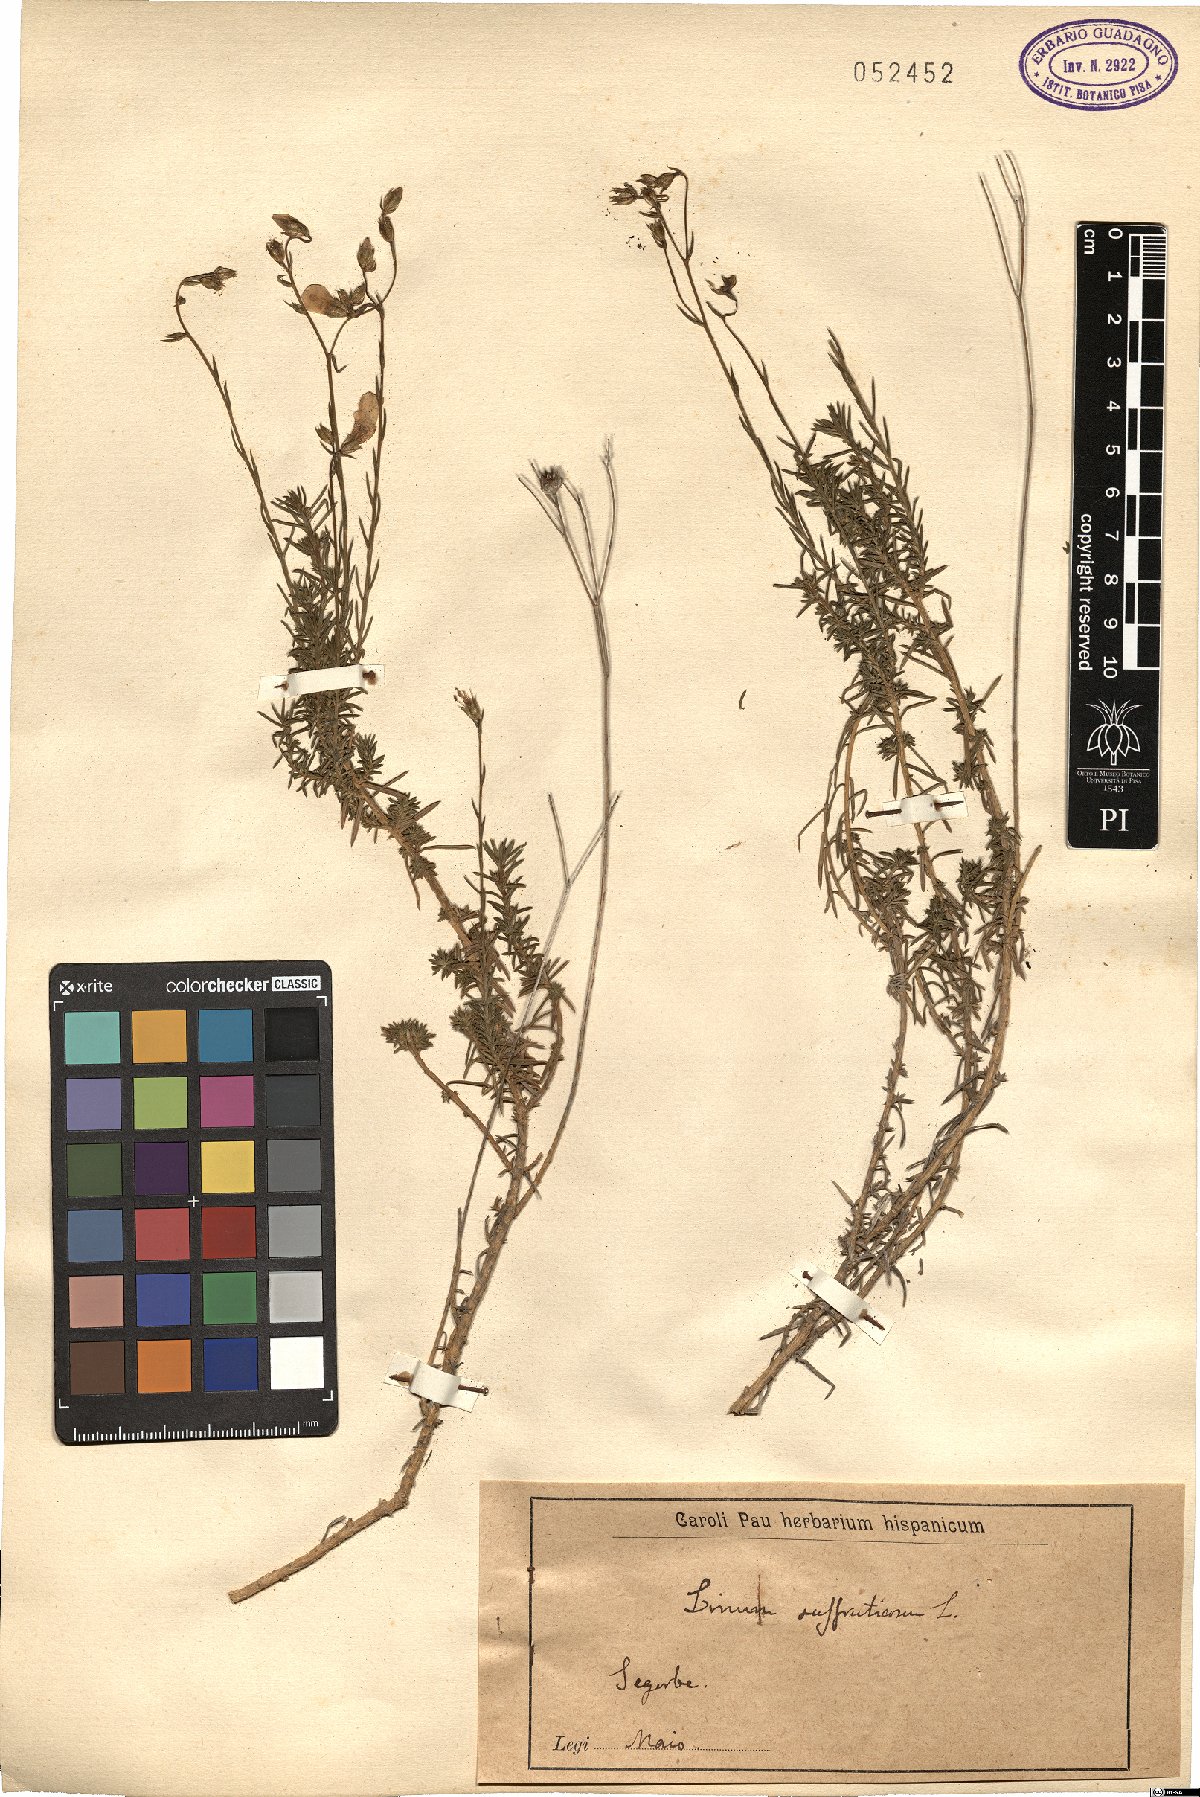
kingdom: Plantae
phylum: Tracheophyta
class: Magnoliopsida
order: Malpighiales
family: Linaceae
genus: Linum
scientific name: Linum suffruticosum
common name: White flax
